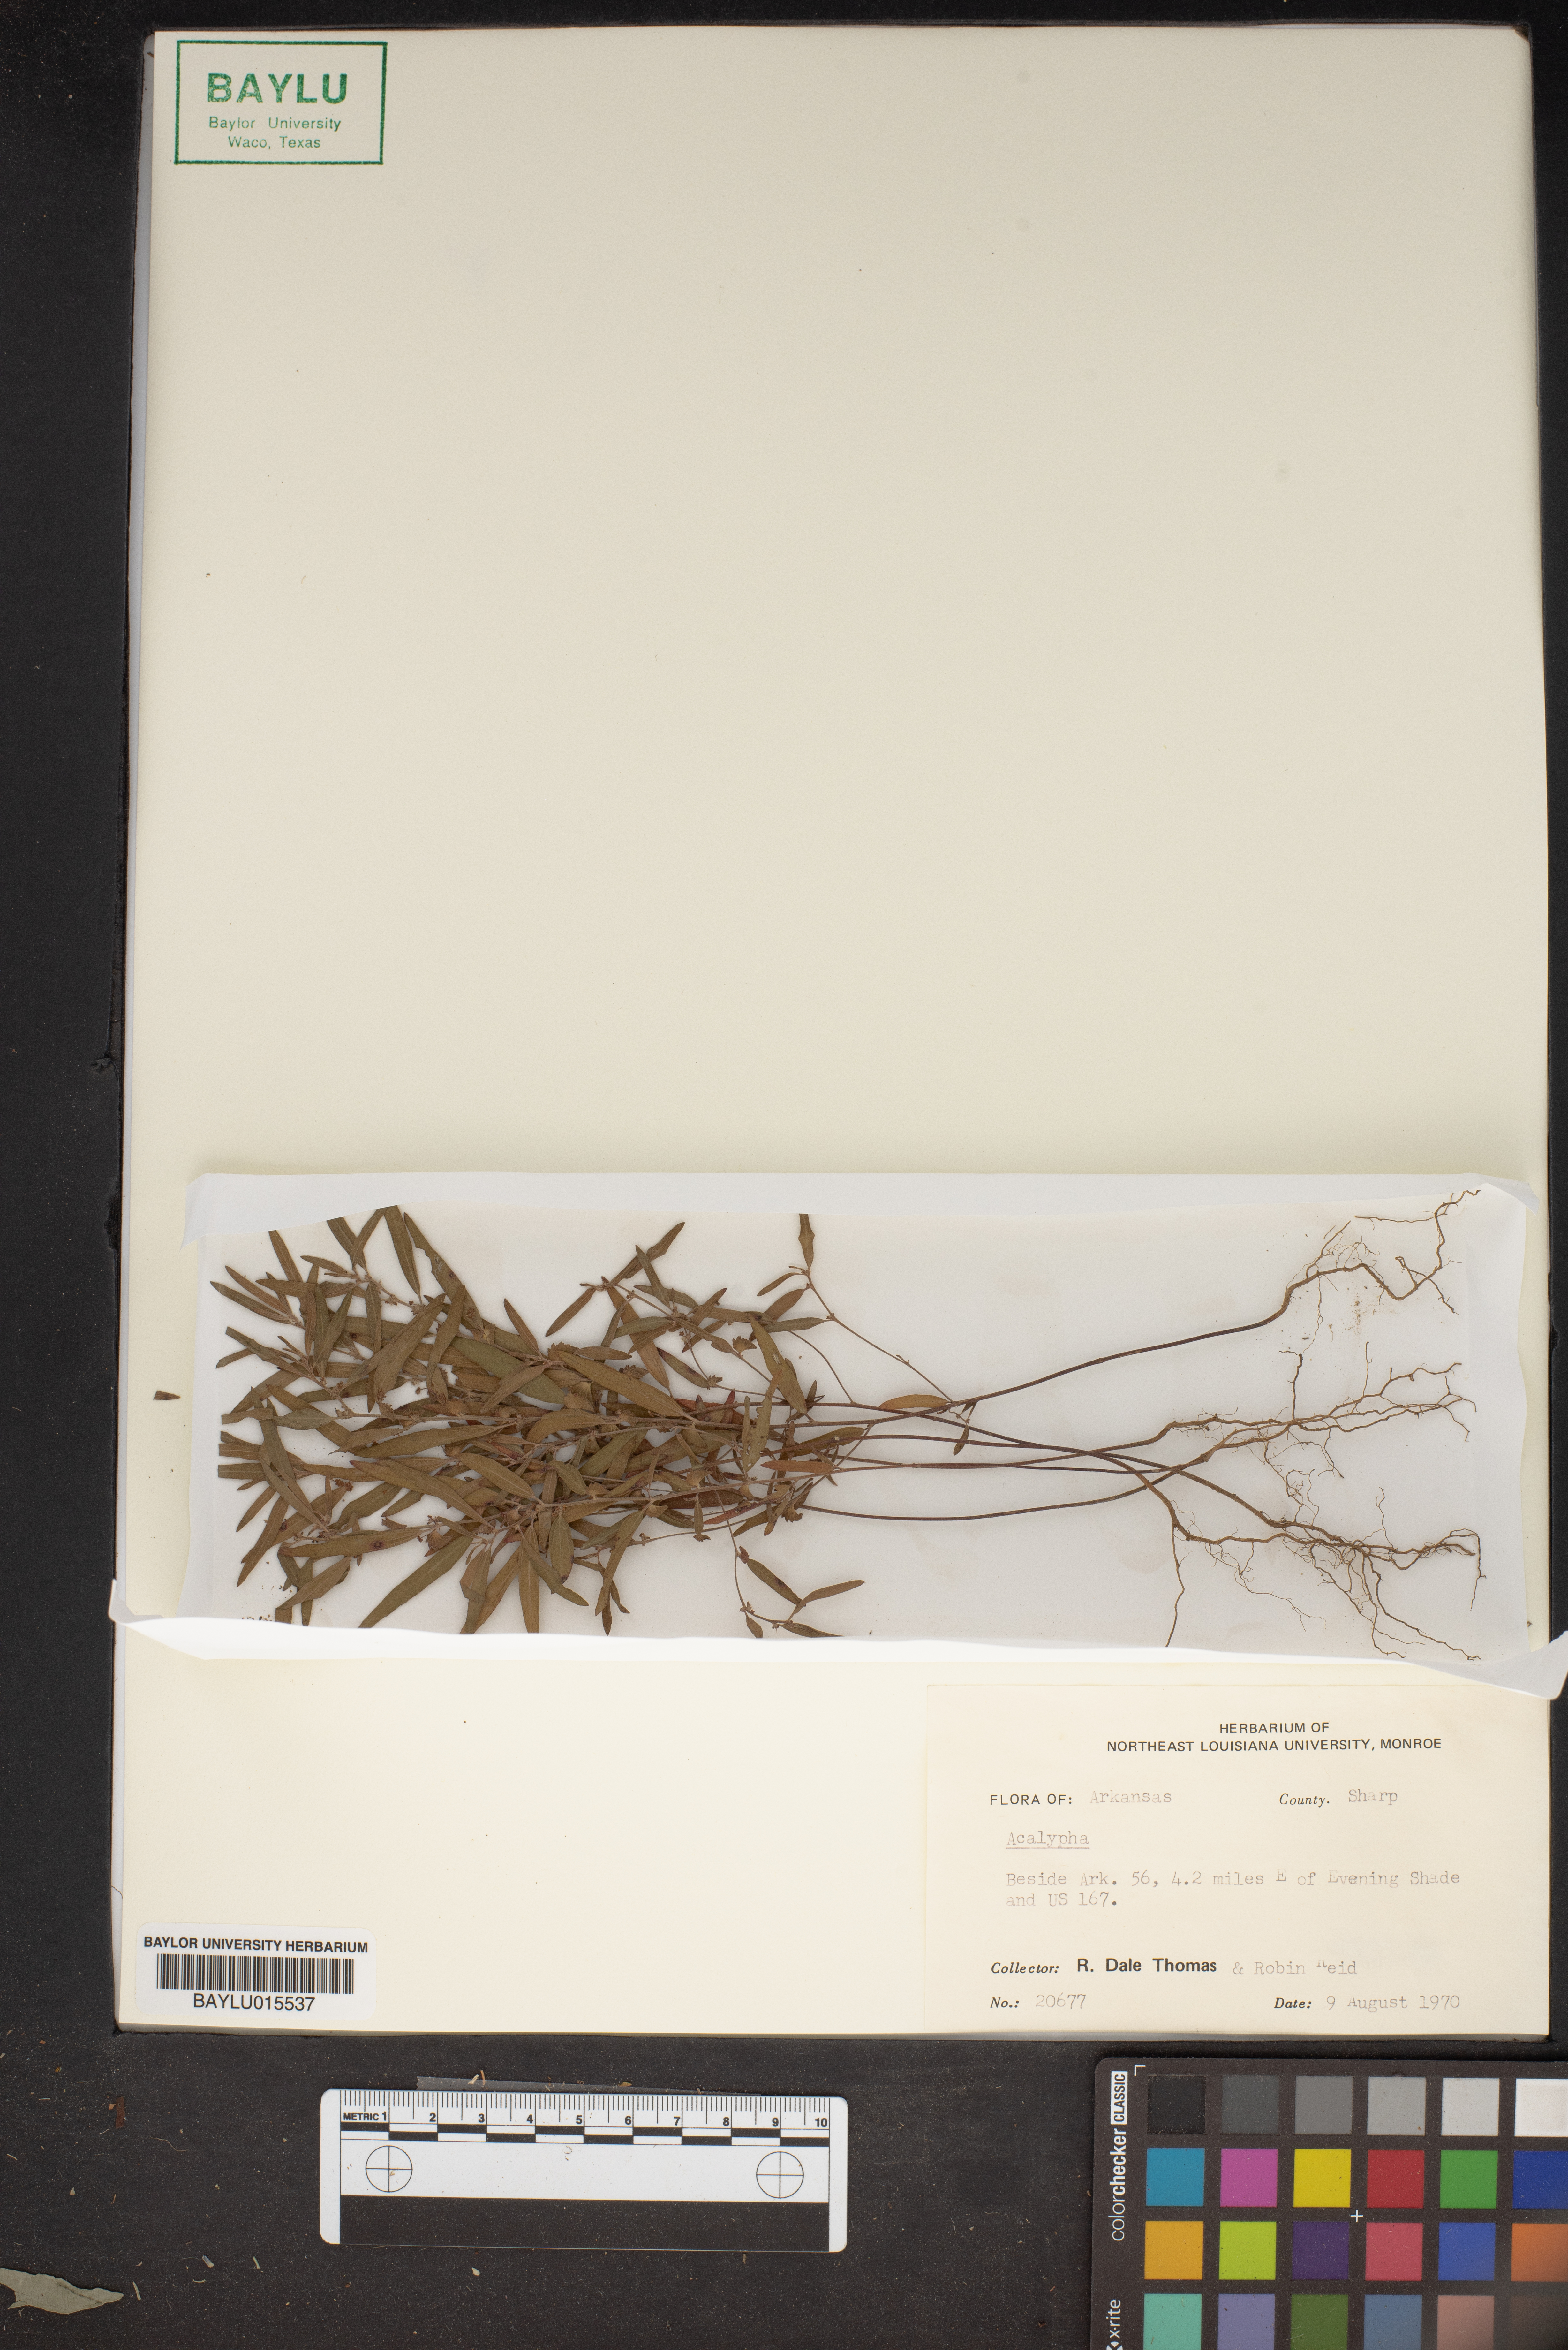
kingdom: Plantae
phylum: Tracheophyta
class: Magnoliopsida
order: Malpighiales
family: Euphorbiaceae
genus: Acalypha
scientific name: Acalypha
